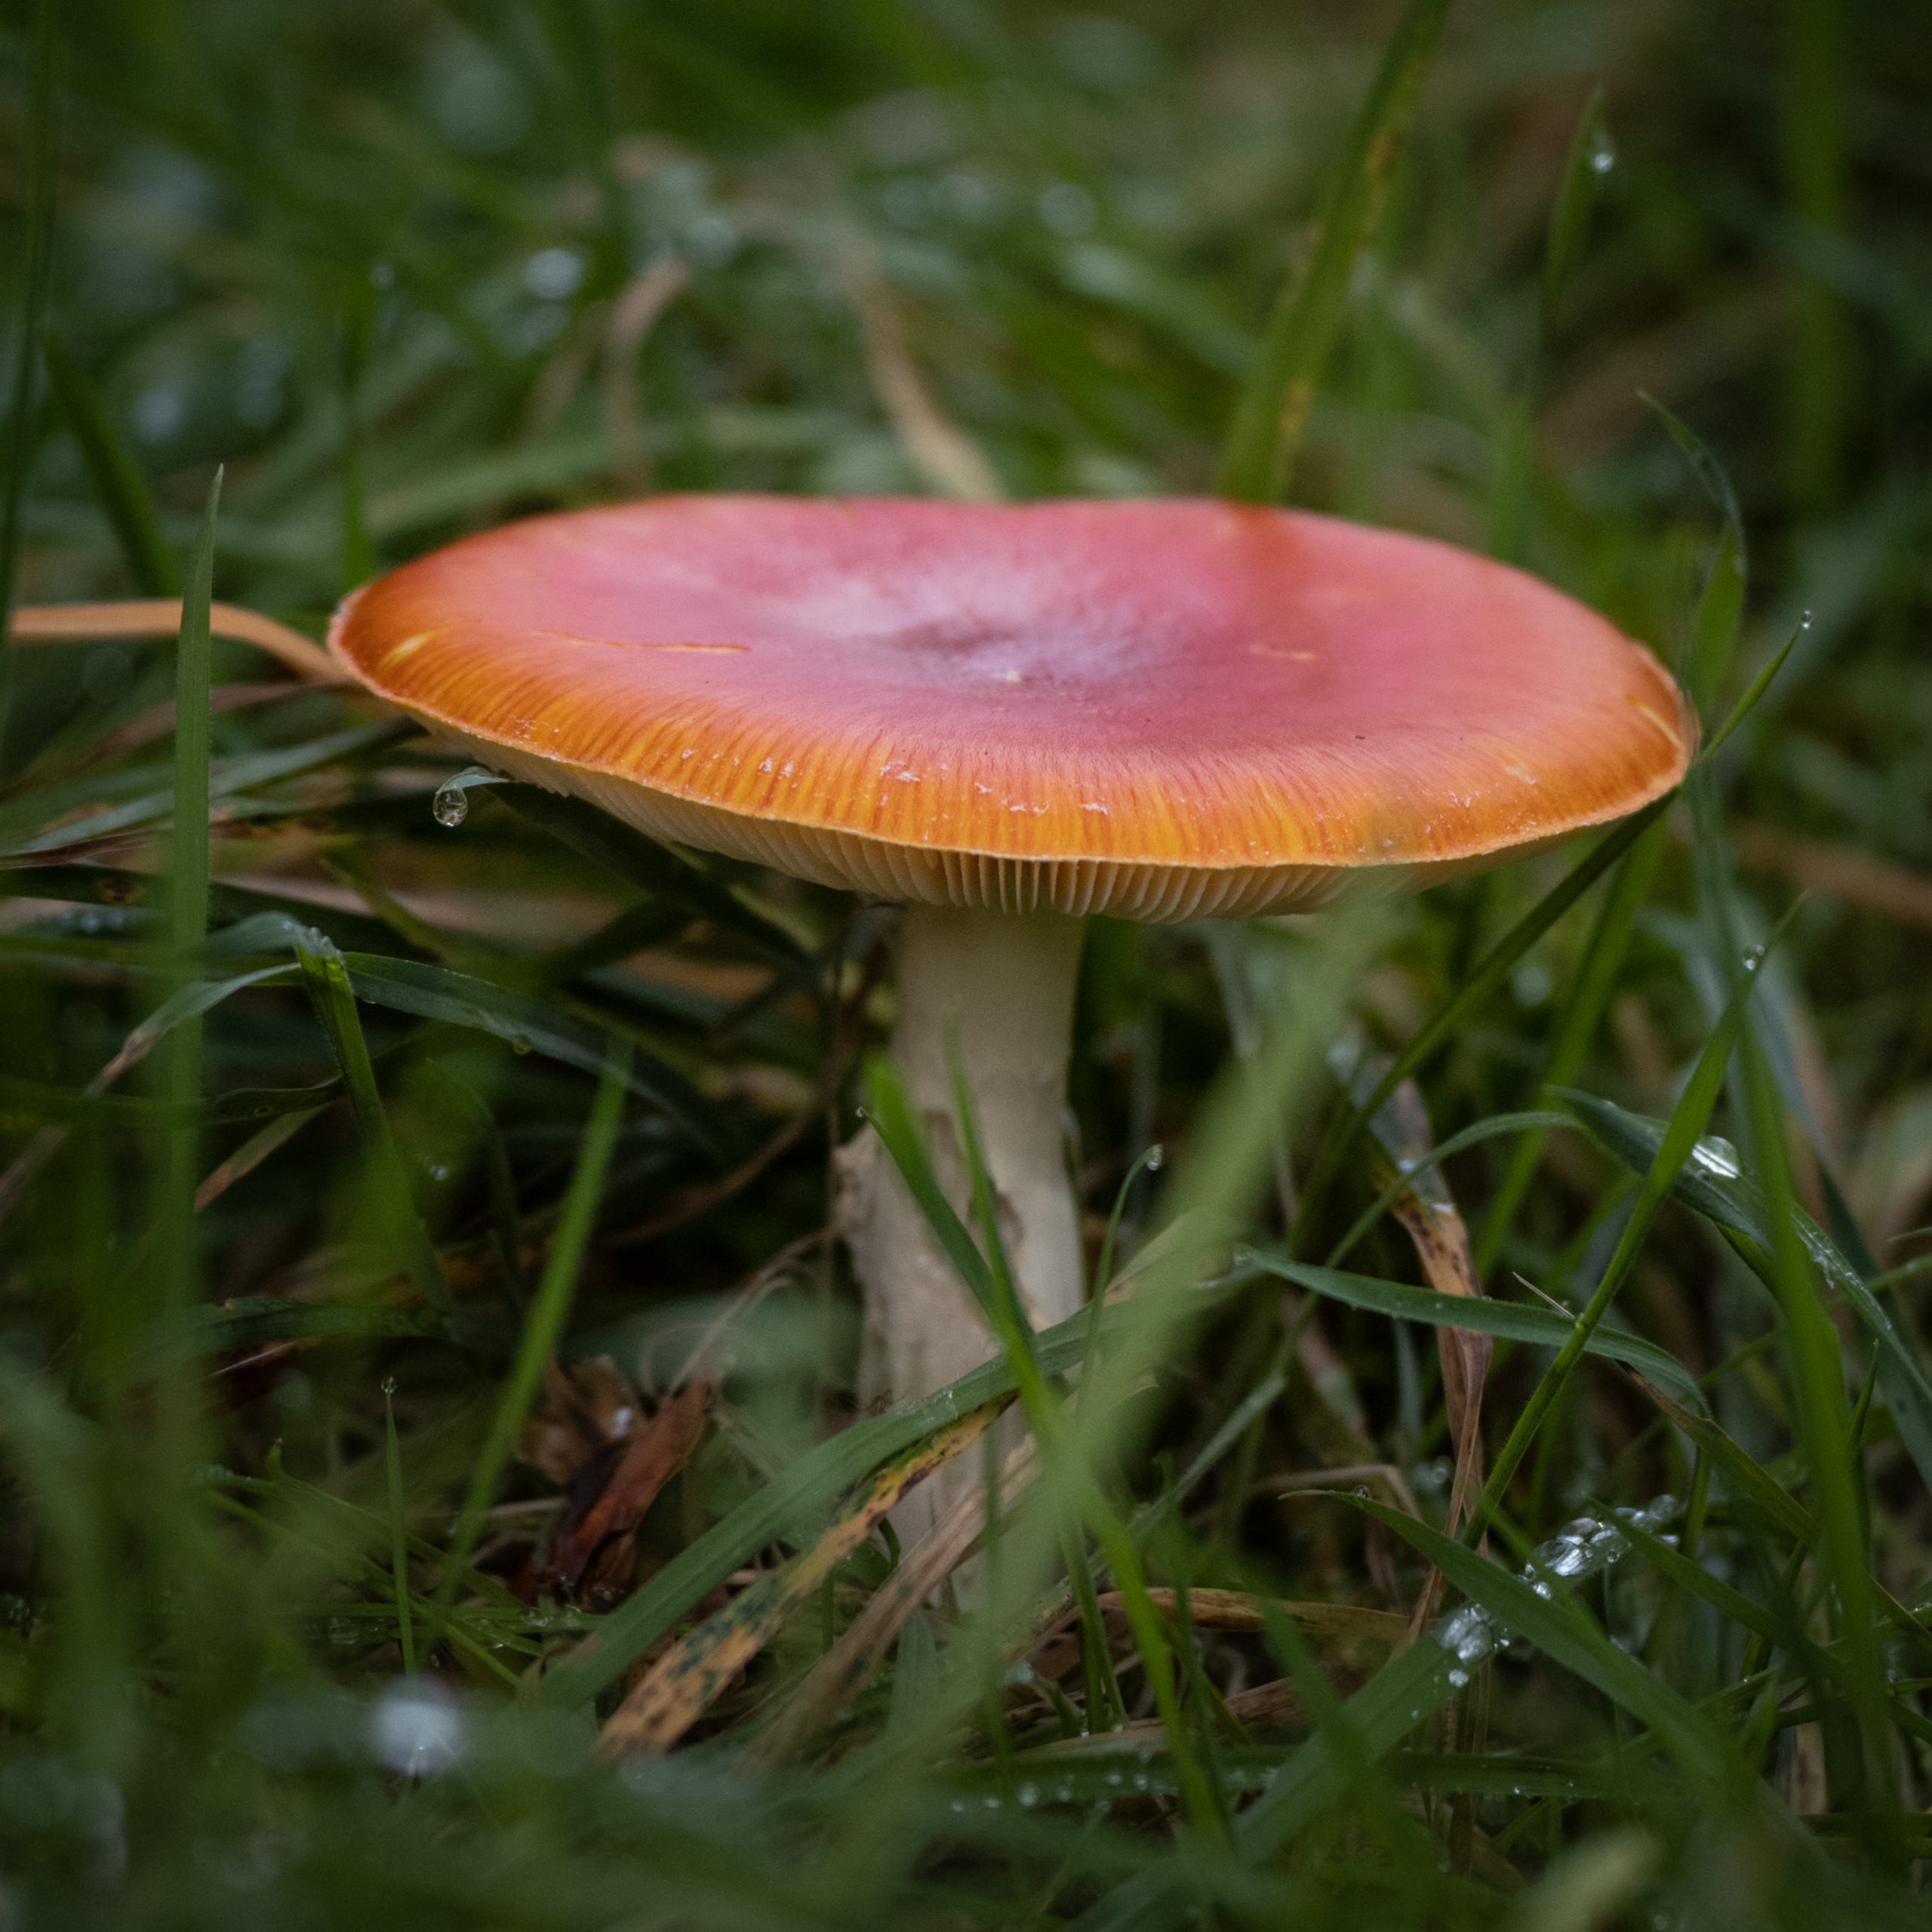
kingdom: Fungi
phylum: Basidiomycota
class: Agaricomycetes
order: Agaricales
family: Amanitaceae
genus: Amanita
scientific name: Amanita muscaria
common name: Rød fluesvamp
